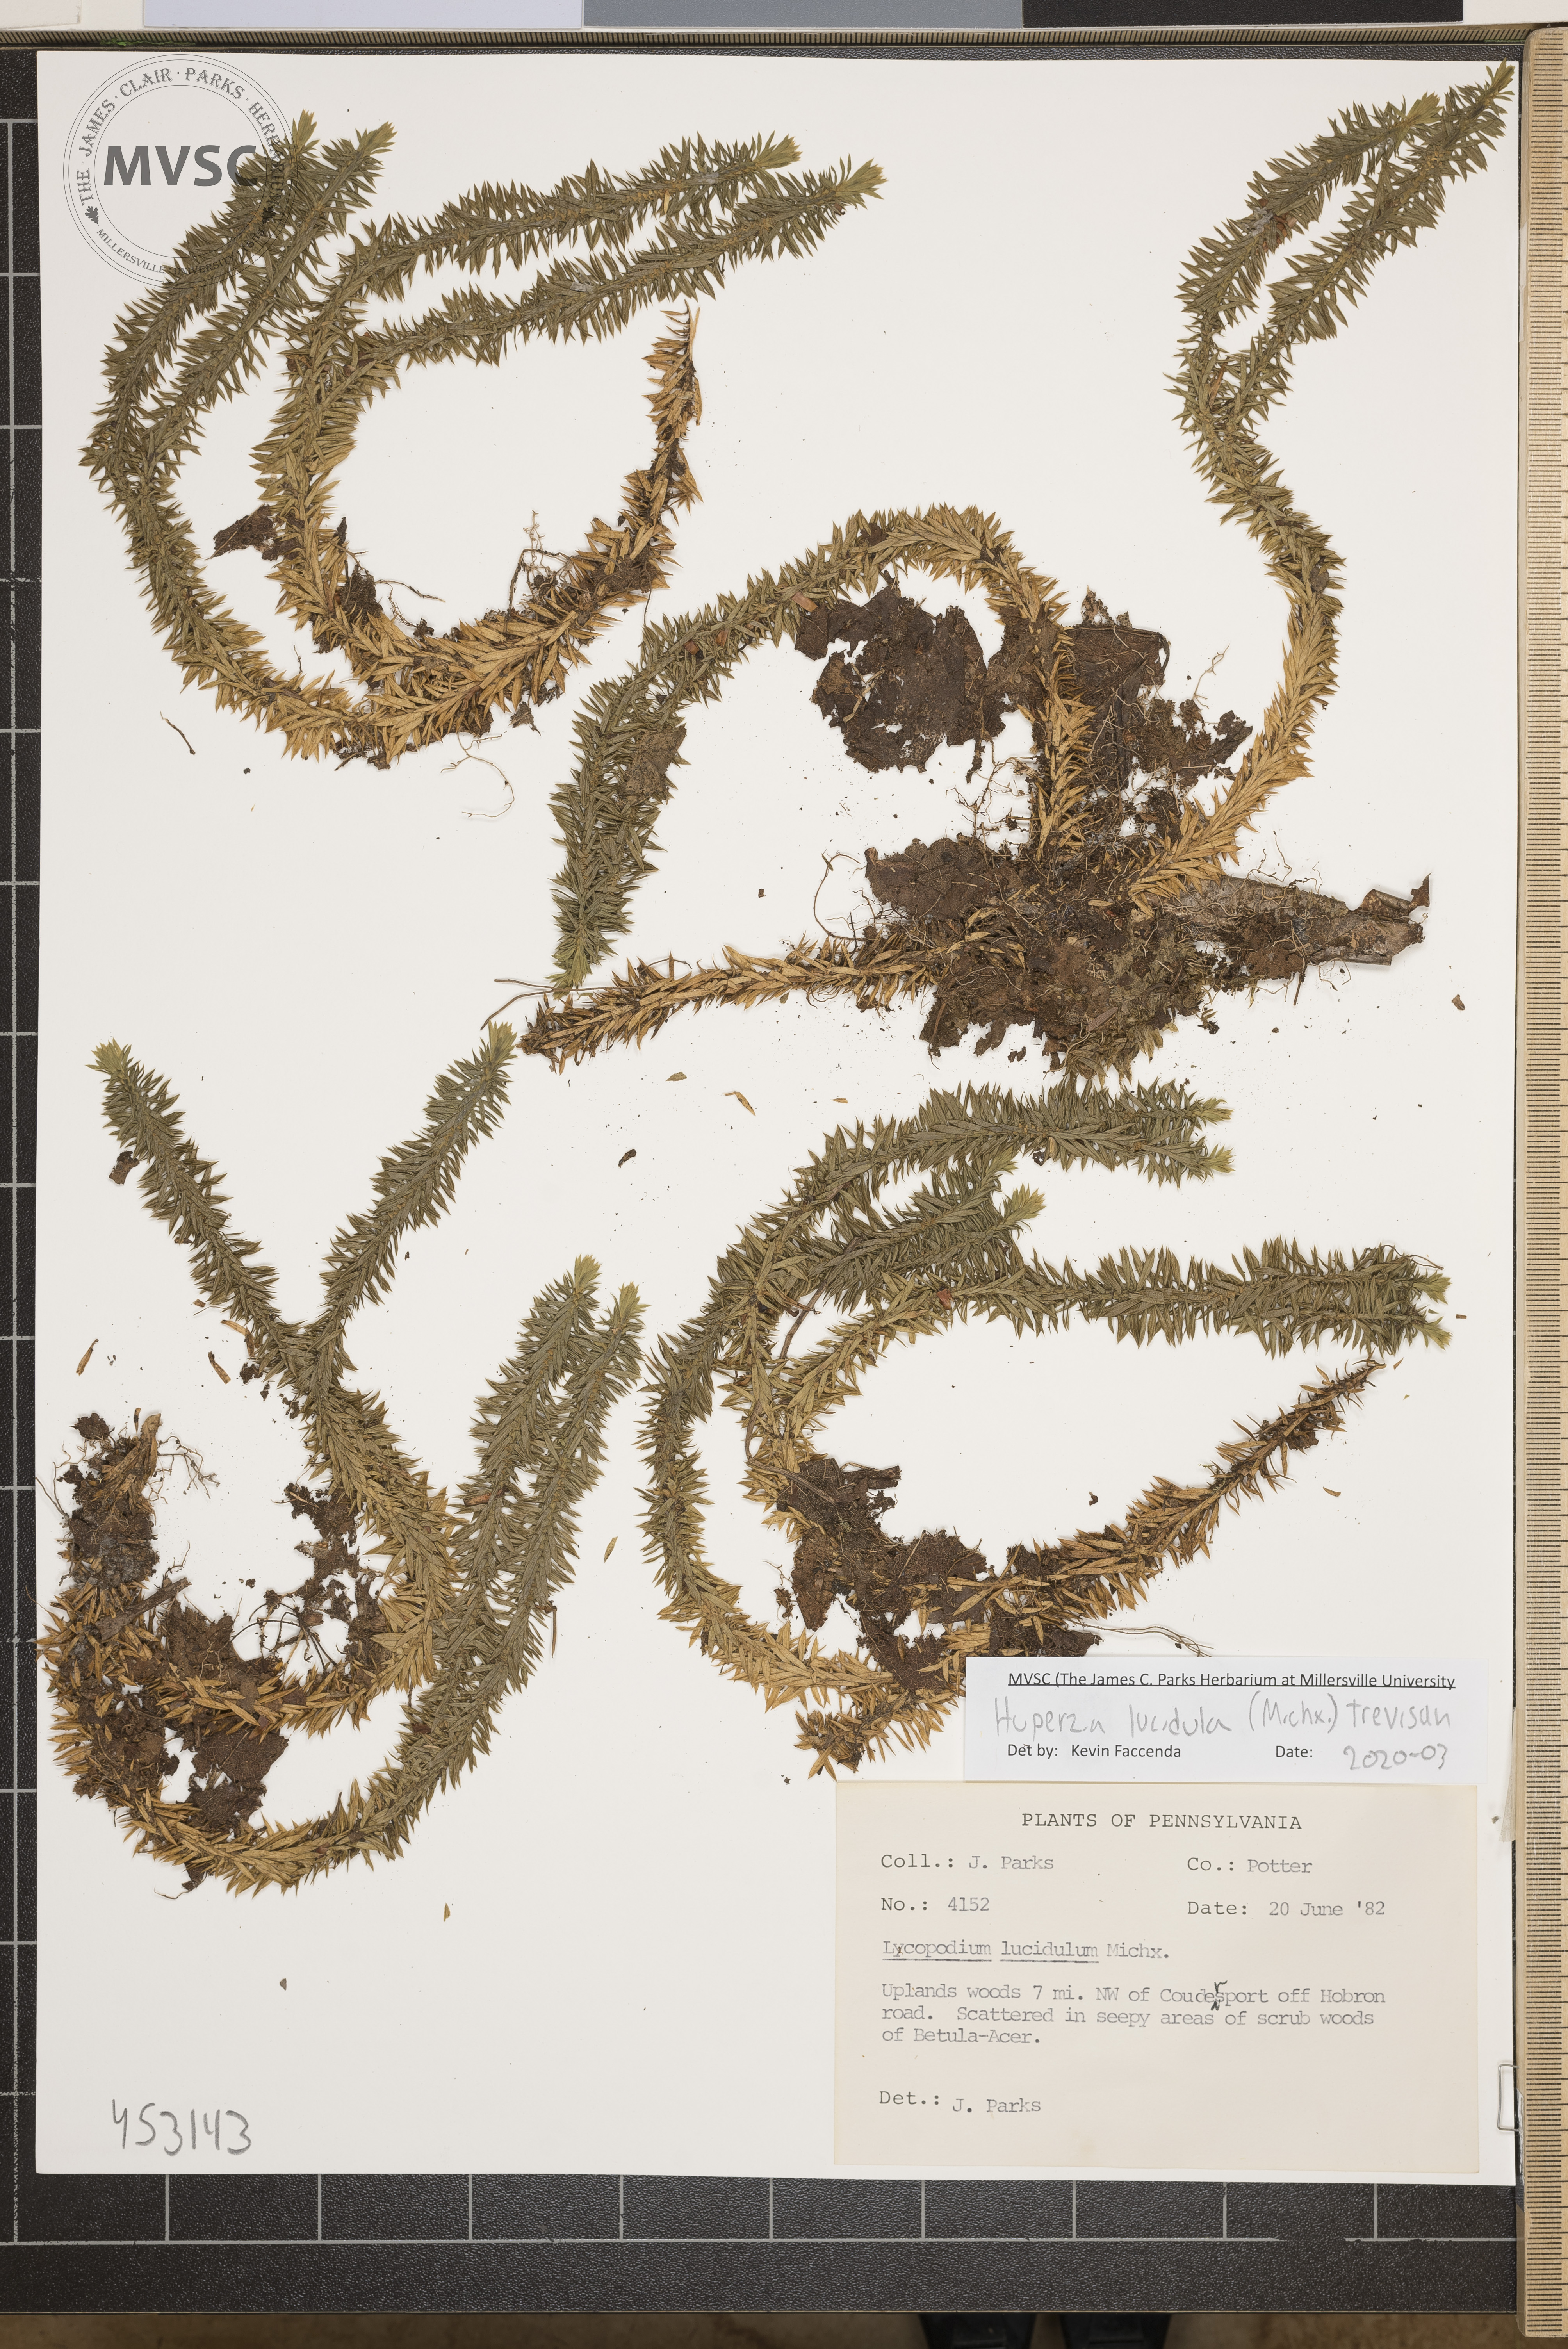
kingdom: Plantae
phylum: Tracheophyta
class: Lycopodiopsida
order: Lycopodiales
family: Lycopodiaceae
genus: Huperzia
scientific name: Huperzia lucidula
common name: Shining clubmoss
